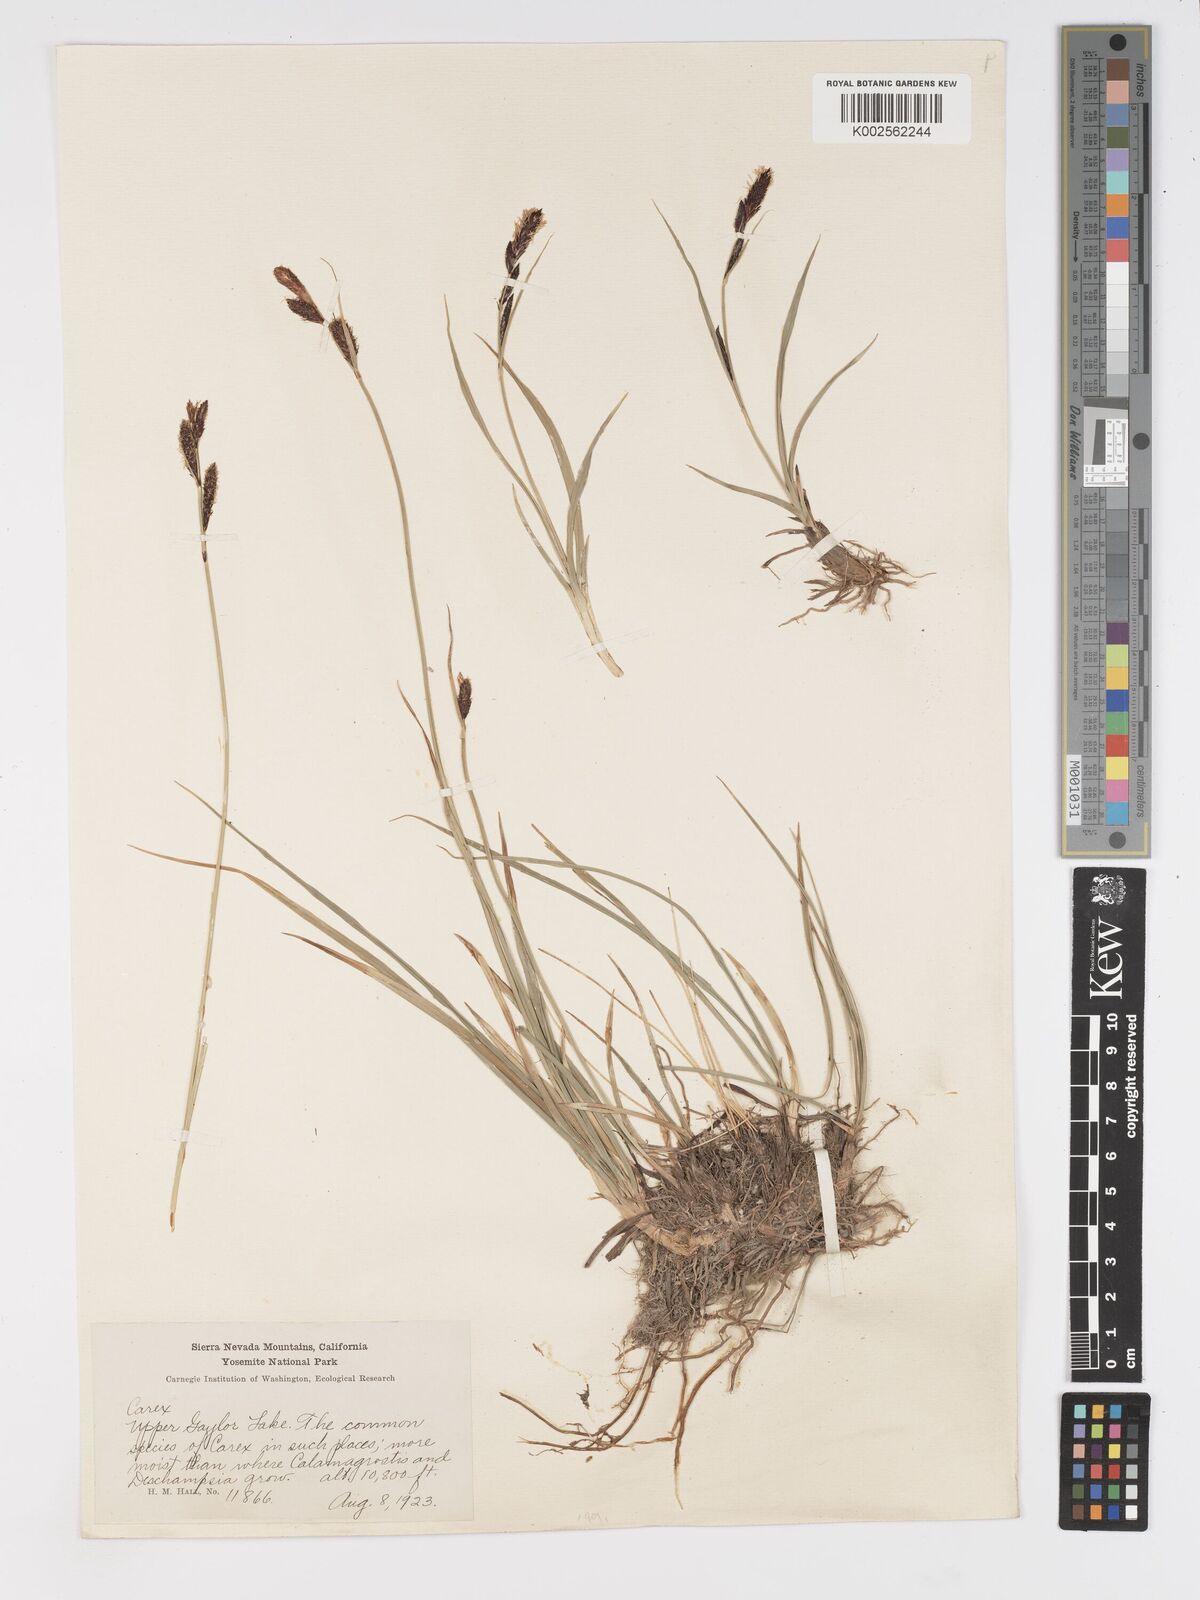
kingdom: Plantae
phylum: Tracheophyta
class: Liliopsida
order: Poales
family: Cyperaceae
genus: Carex
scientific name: Carex nebrascensis
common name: Nebraska sedge
